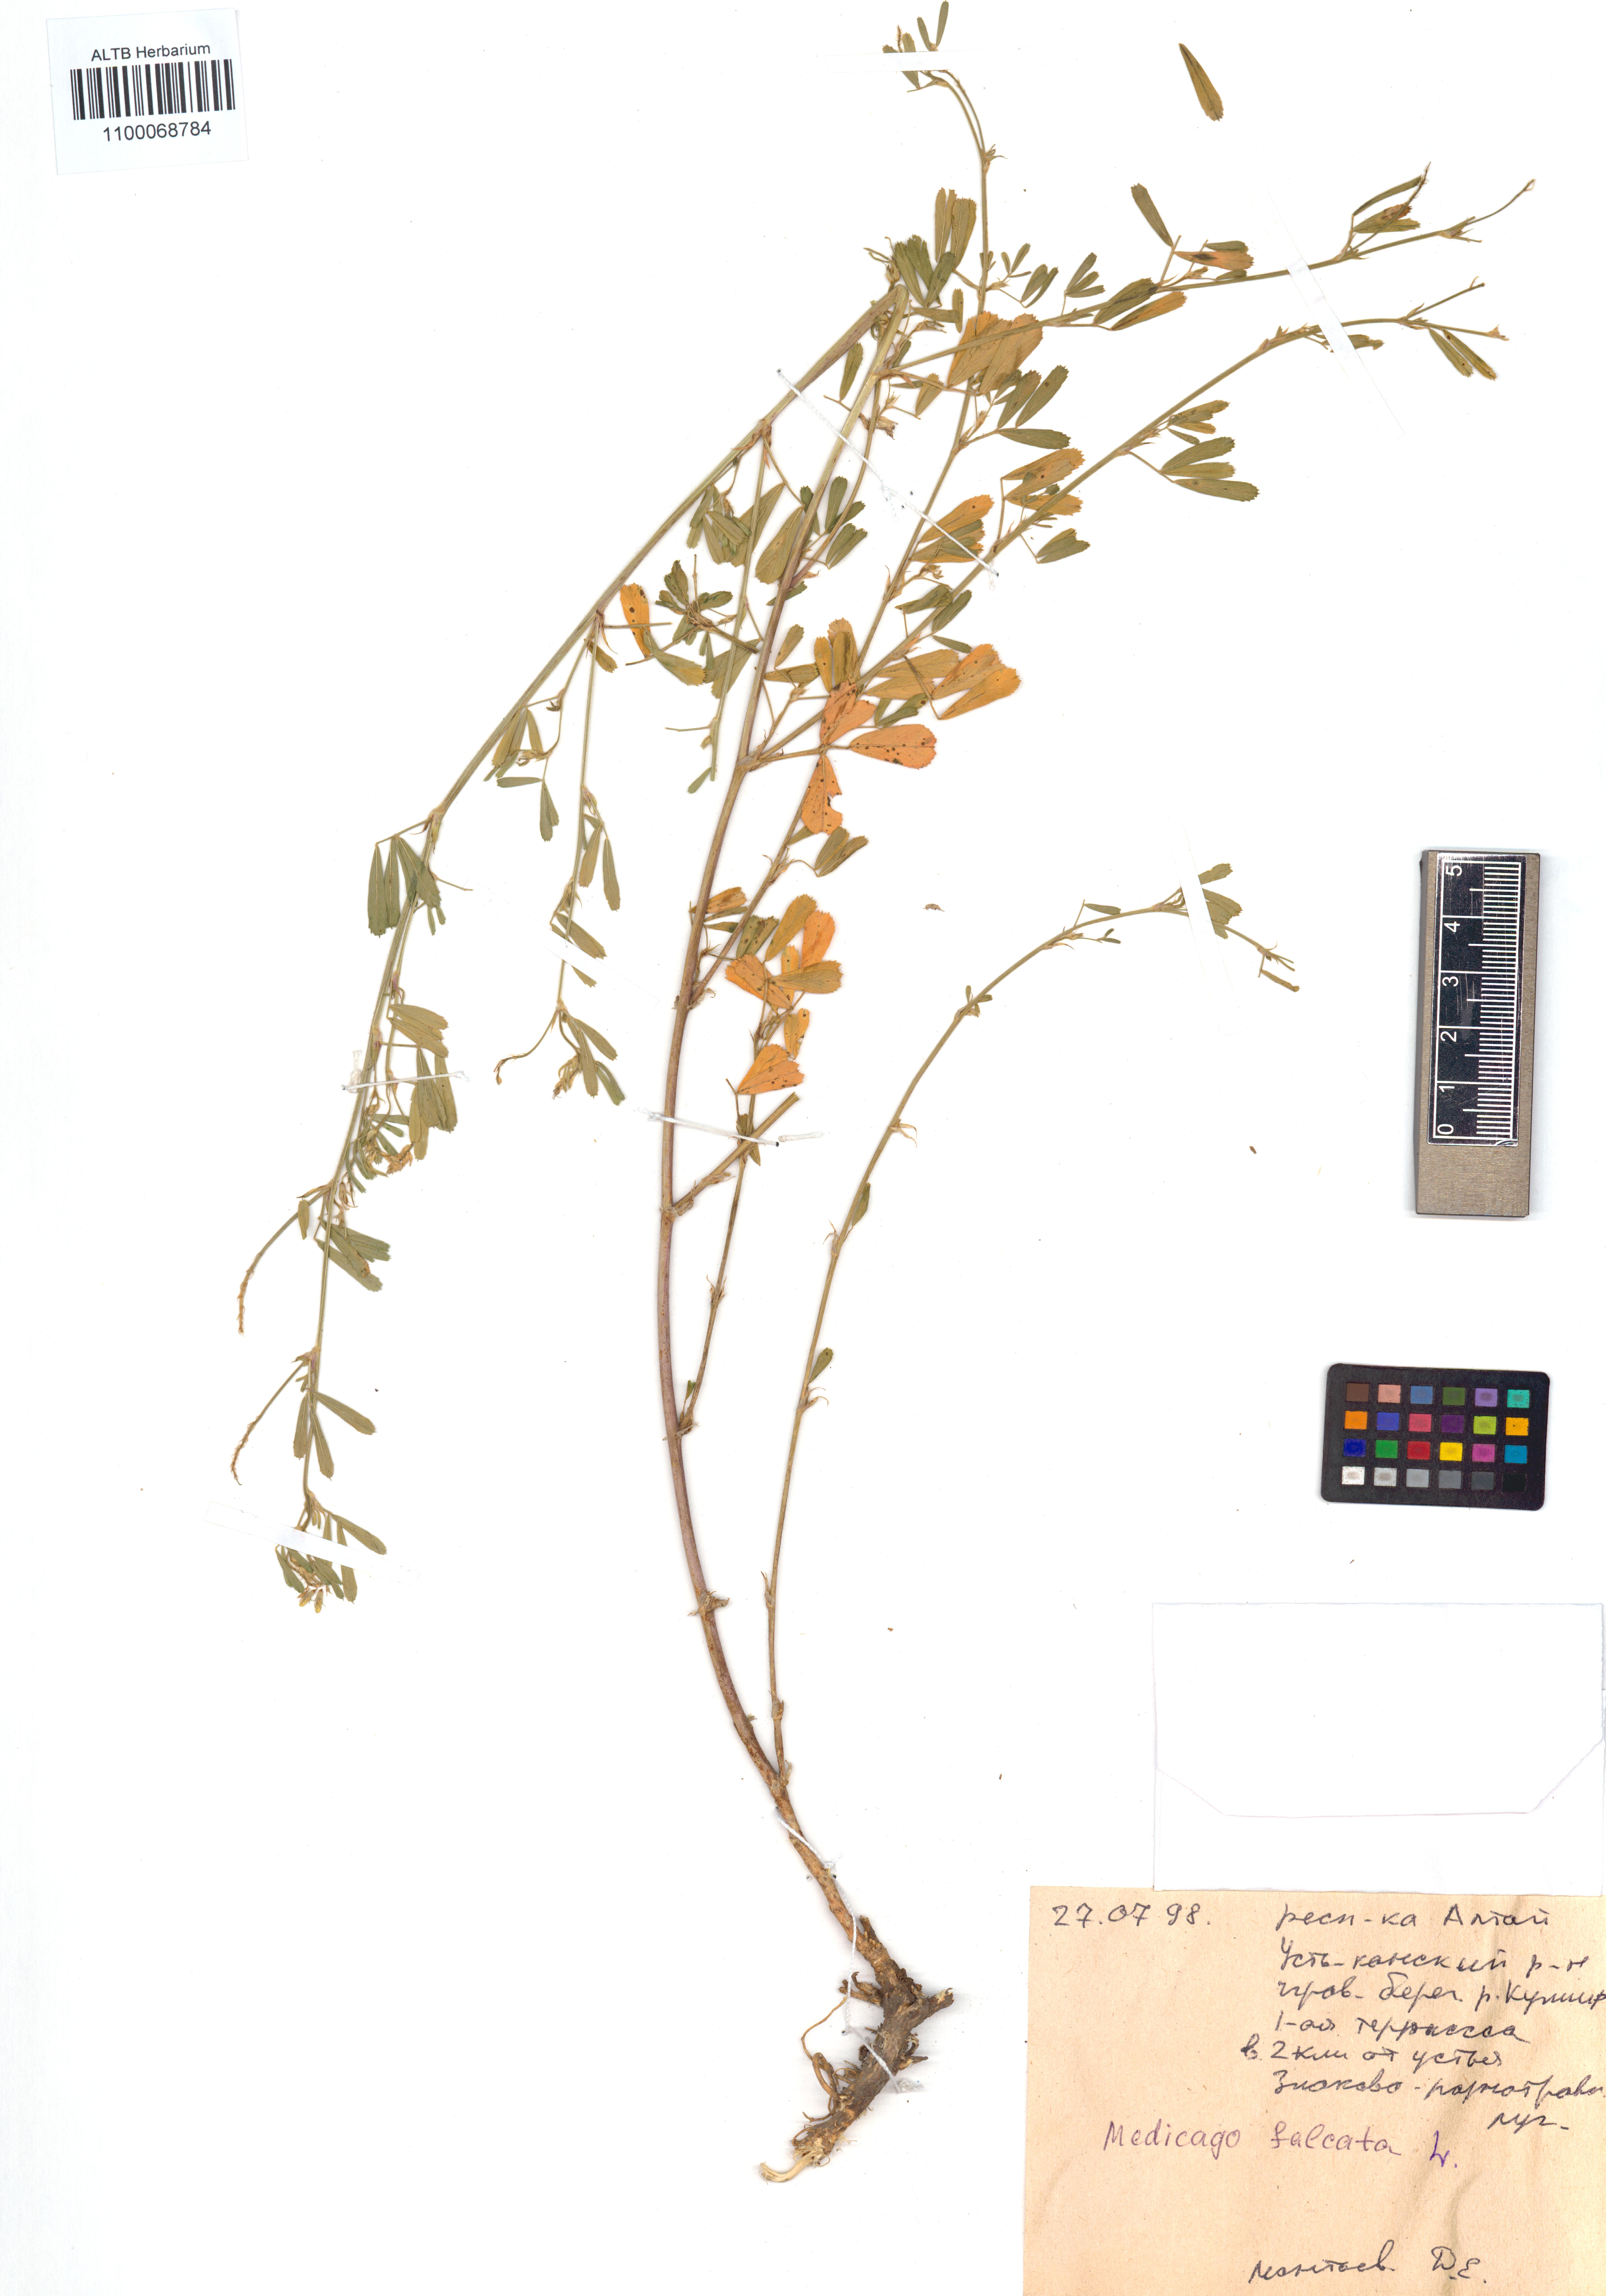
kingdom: Plantae
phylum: Tracheophyta
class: Magnoliopsida
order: Fabales
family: Fabaceae
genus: Medicago
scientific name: Medicago falcata
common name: Sickle medick
